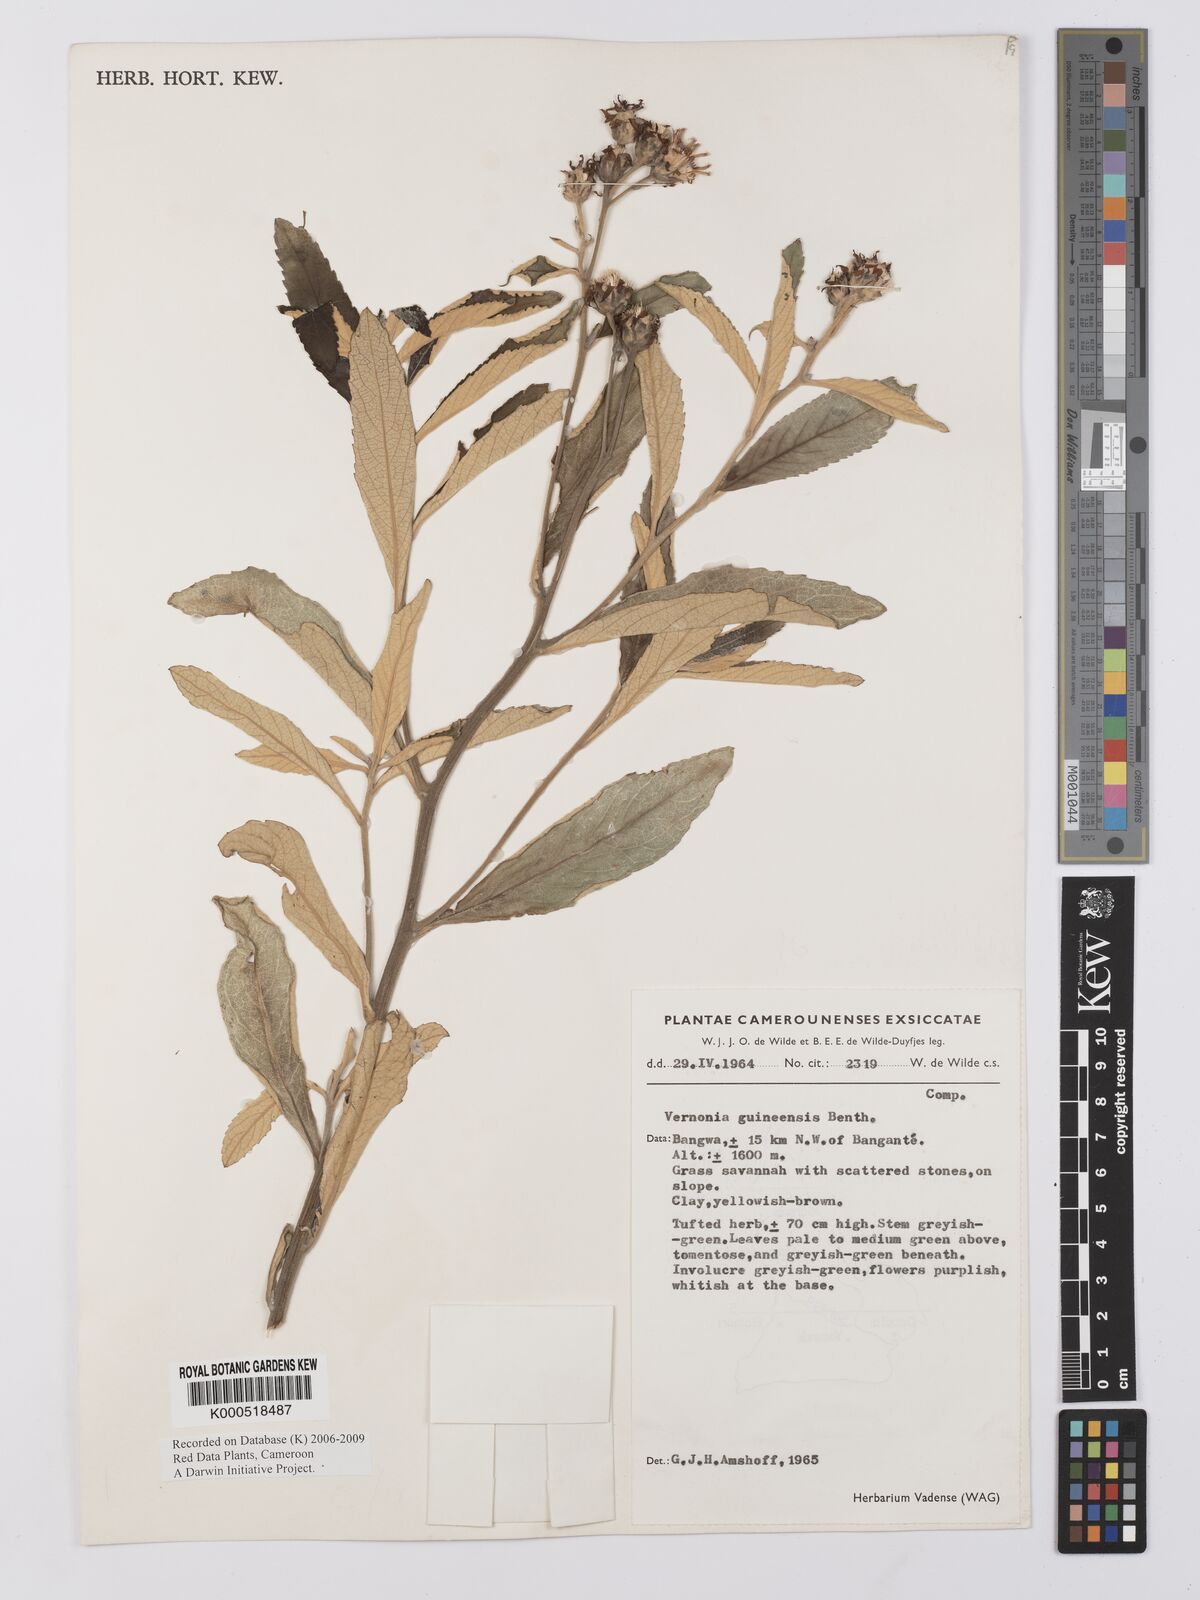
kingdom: Plantae
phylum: Tracheophyta
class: Magnoliopsida
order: Asterales
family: Asteraceae
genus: Baccharoides
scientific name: Baccharoides guineensis
